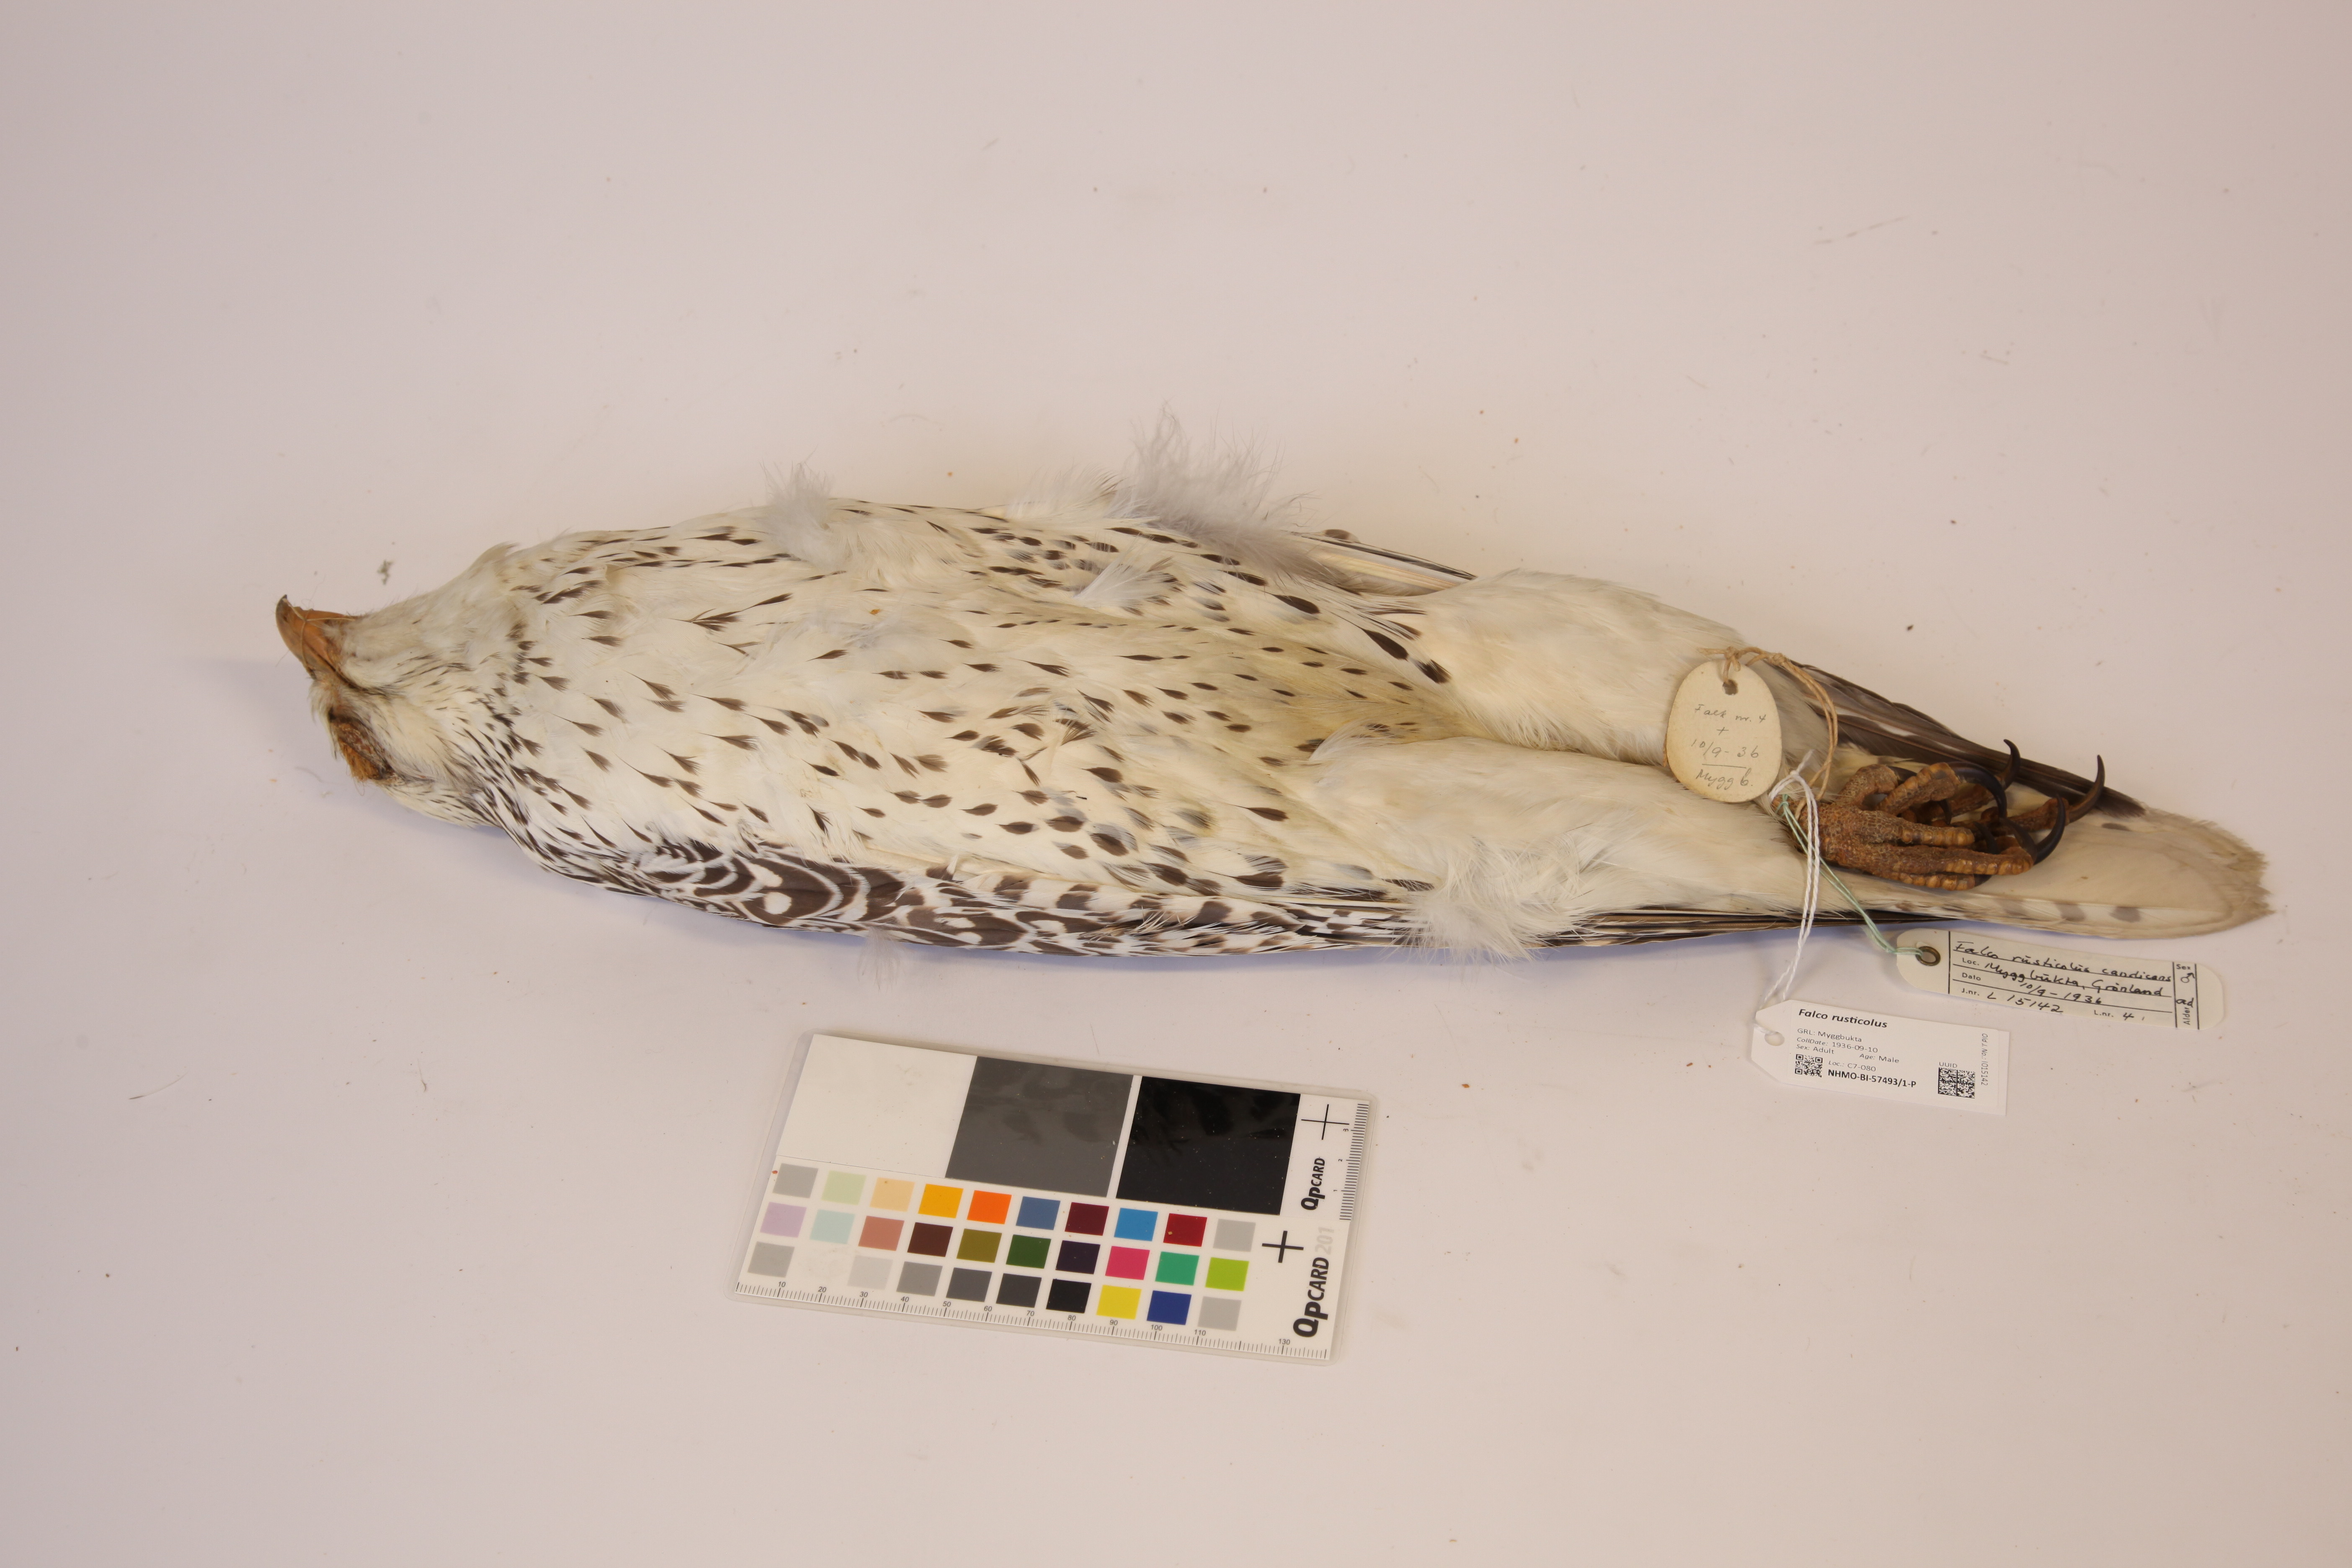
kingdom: Animalia
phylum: Chordata
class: Aves
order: Falconiformes
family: Falconidae
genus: Falco
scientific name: Falco rusticolus
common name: Gyrfalcon
